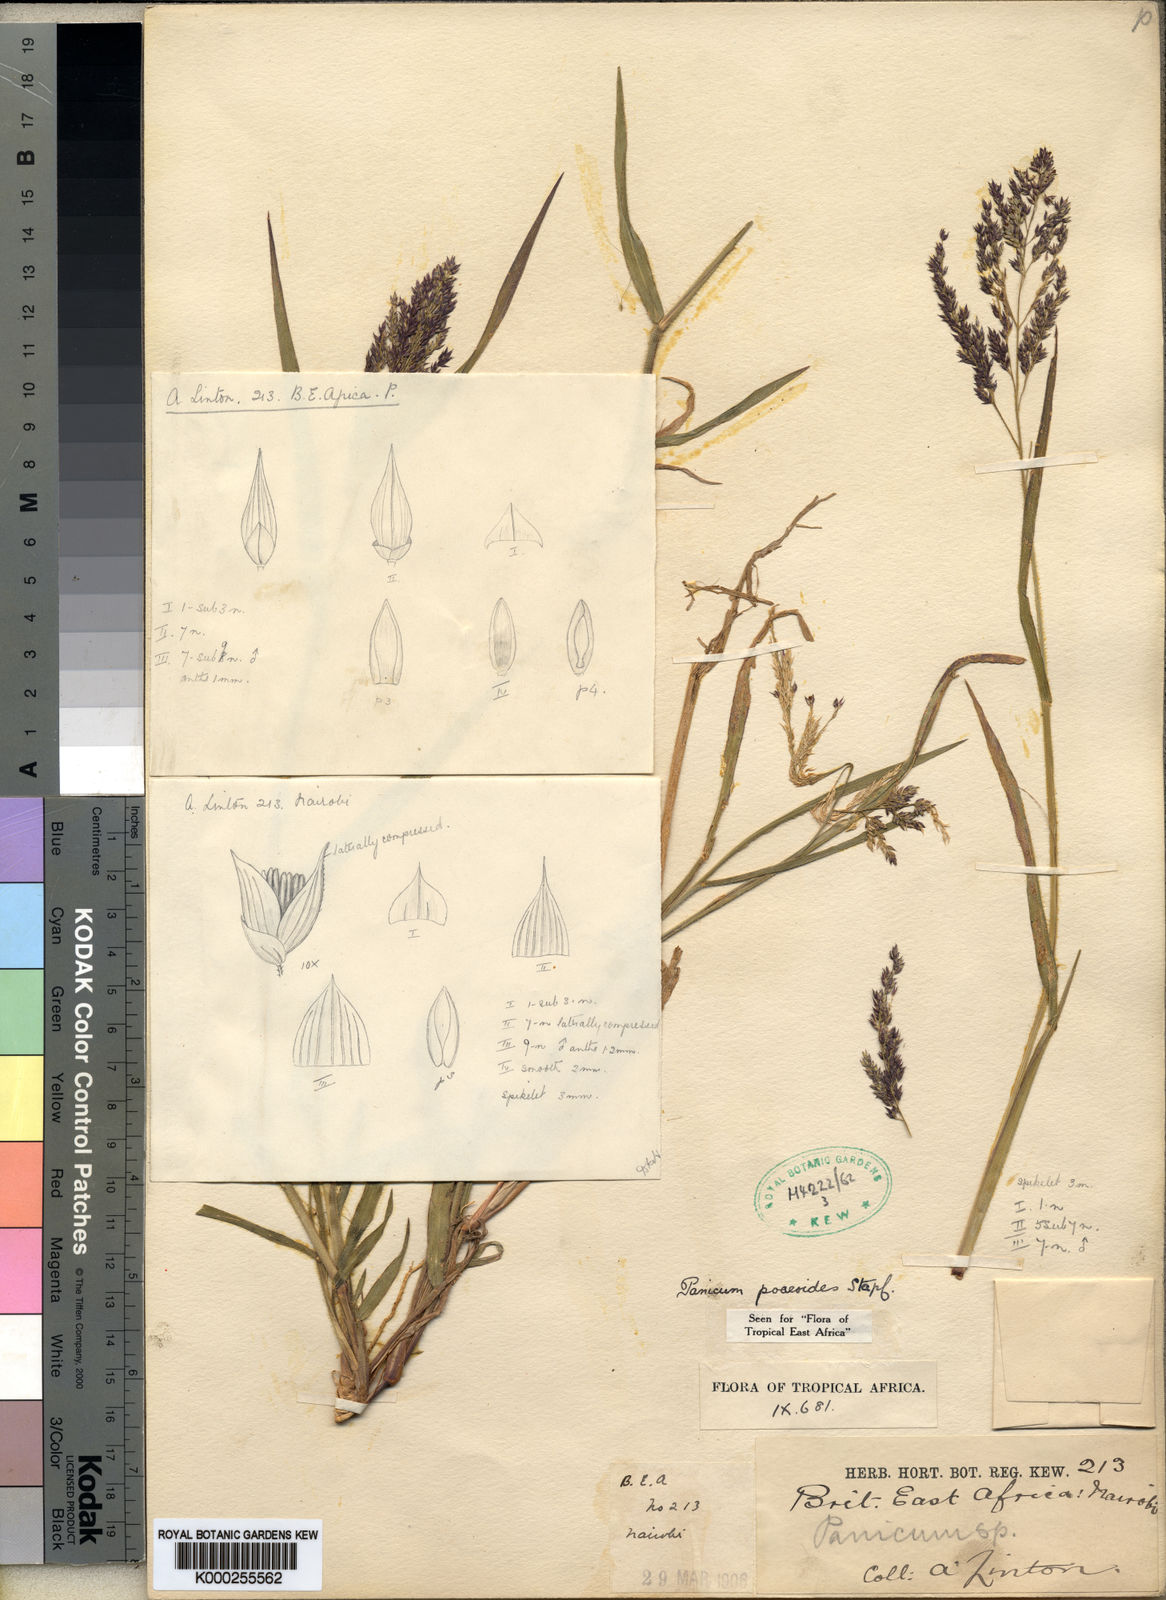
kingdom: Plantae
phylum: Tracheophyta
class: Liliopsida
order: Poales
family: Poaceae
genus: Panicum
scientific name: Panicum
